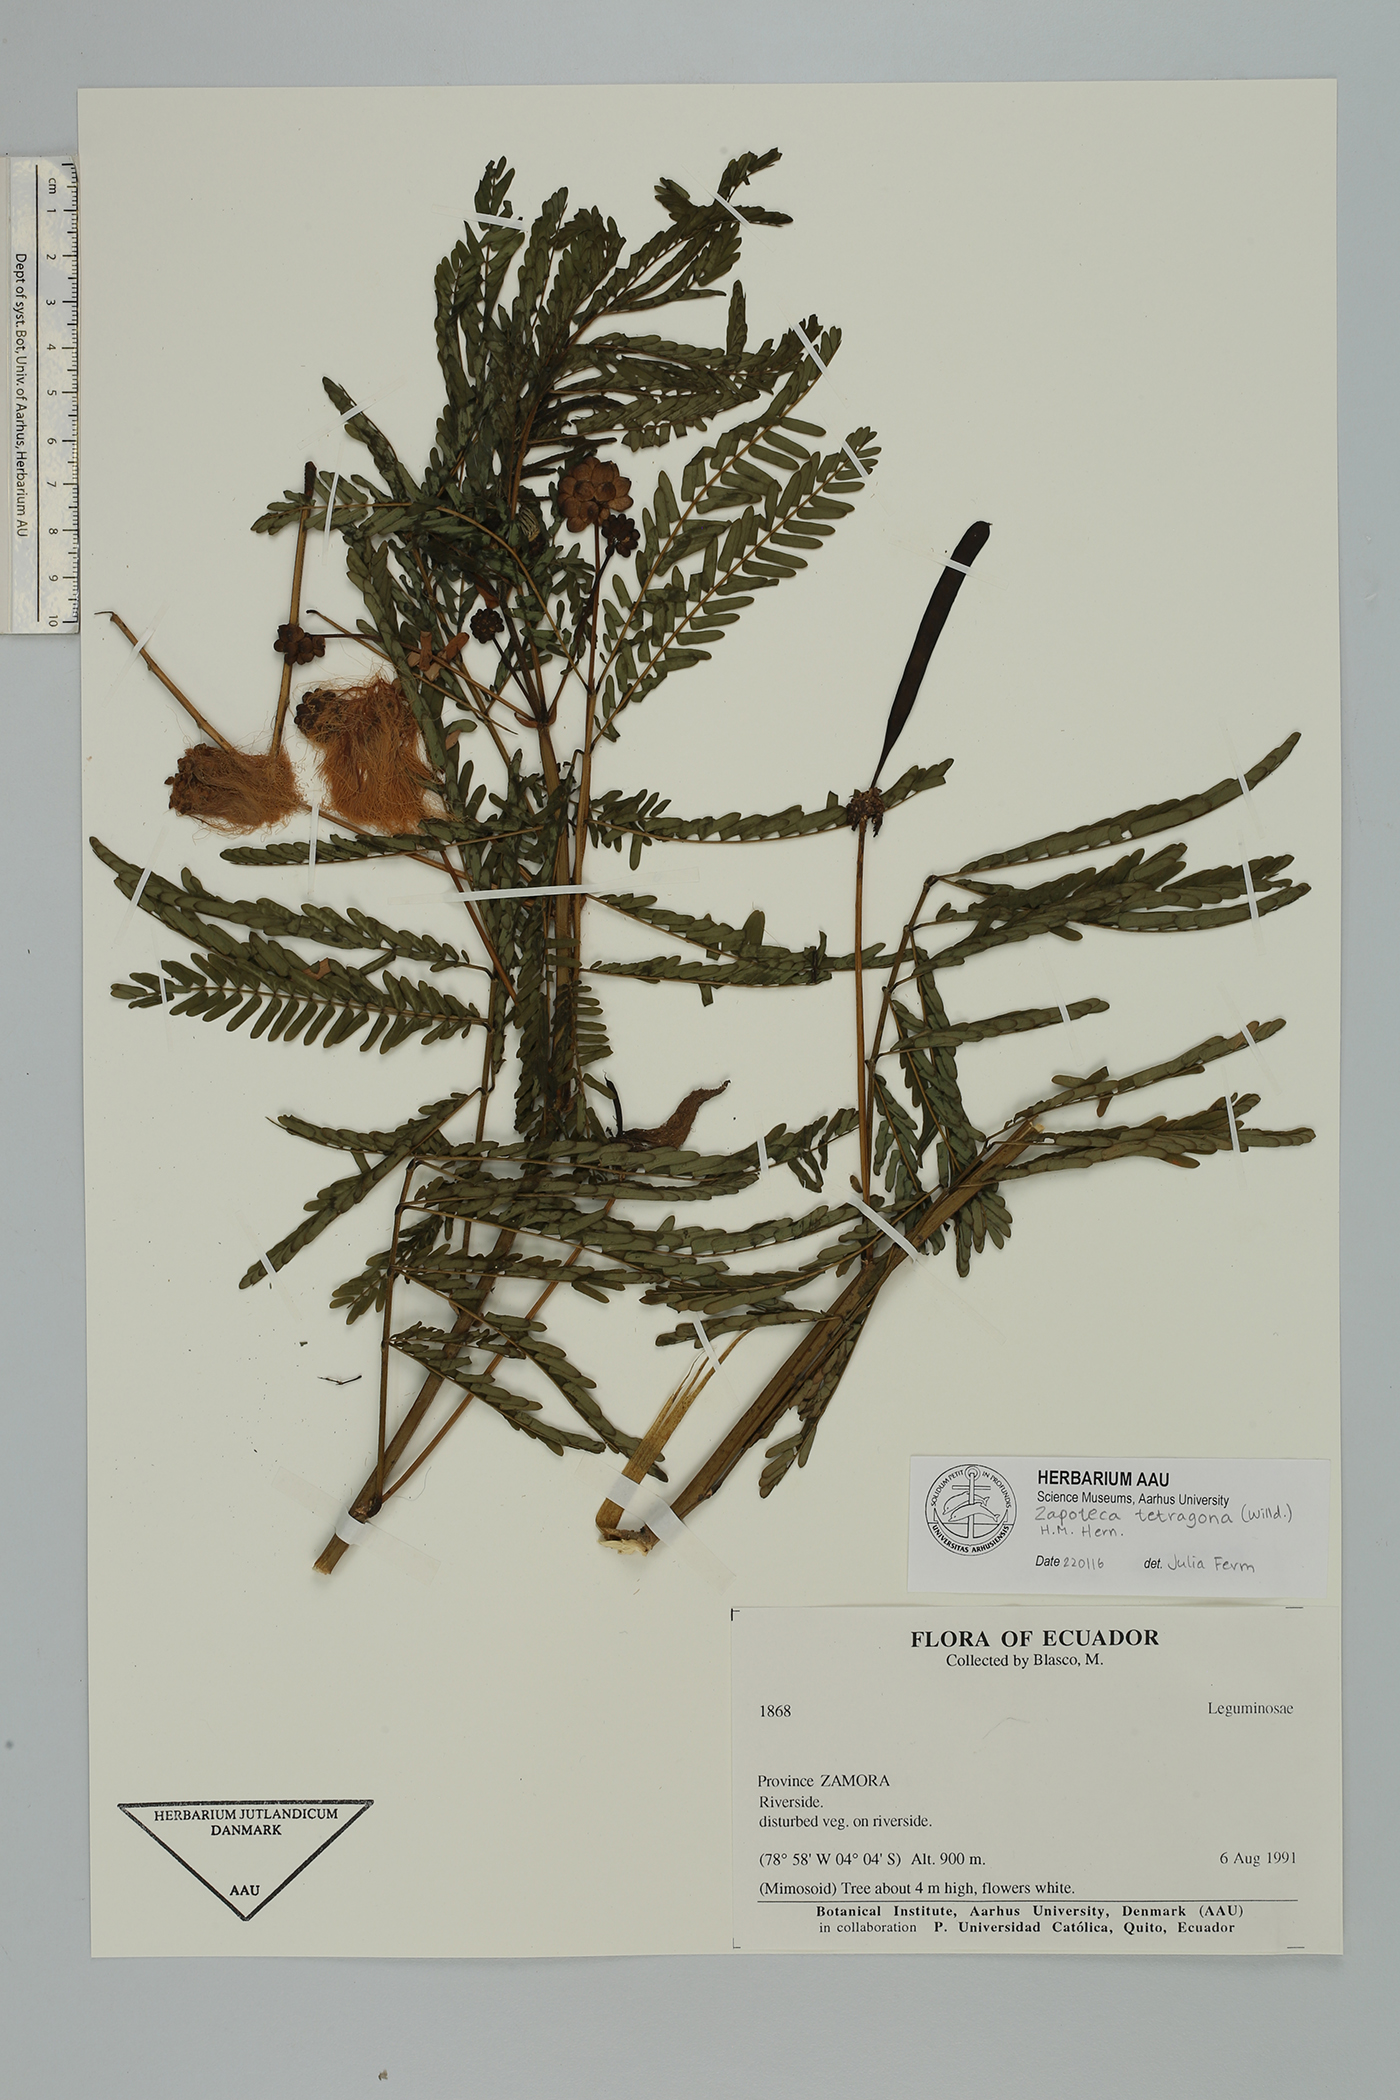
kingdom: Plantae
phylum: Tracheophyta
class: Magnoliopsida
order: Fabales
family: Fabaceae
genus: Zapoteca
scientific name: Zapoteca tetragona
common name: White calliandra
